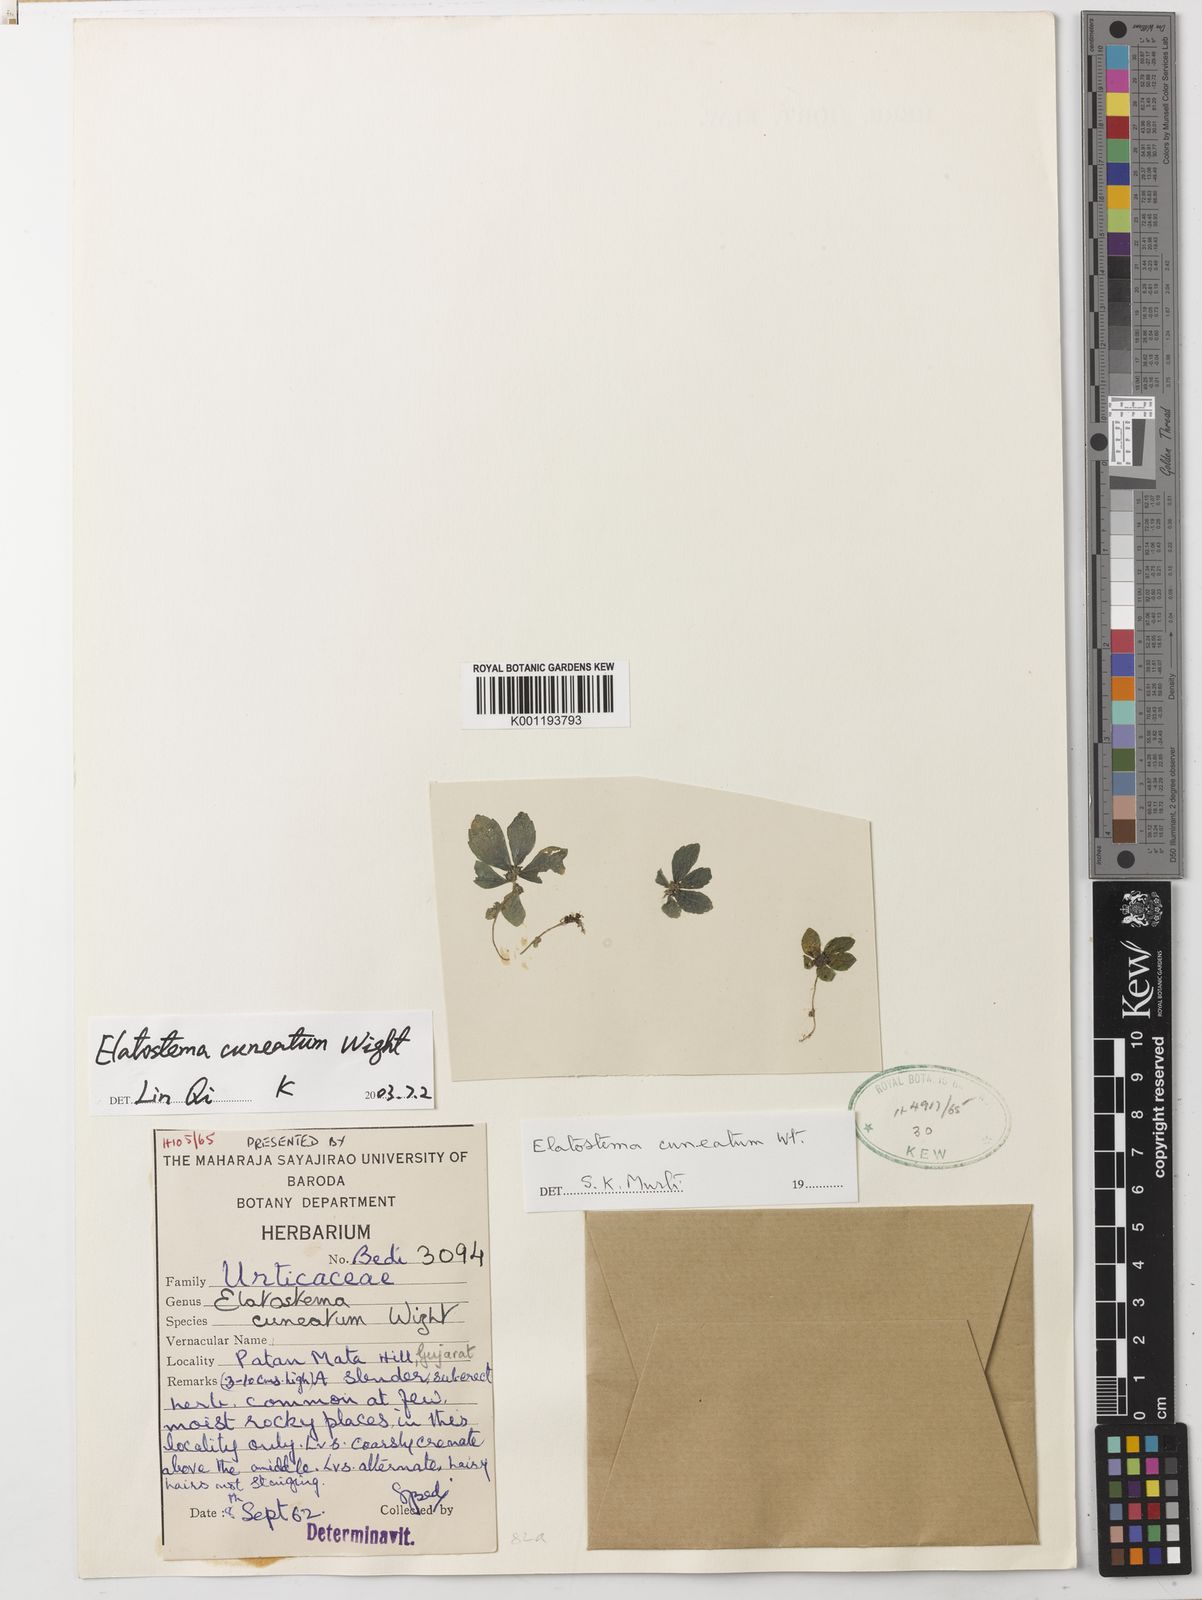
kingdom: Plantae
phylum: Tracheophyta
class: Magnoliopsida
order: Rosales
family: Urticaceae
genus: Elatostema
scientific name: Elatostema cuneatum
